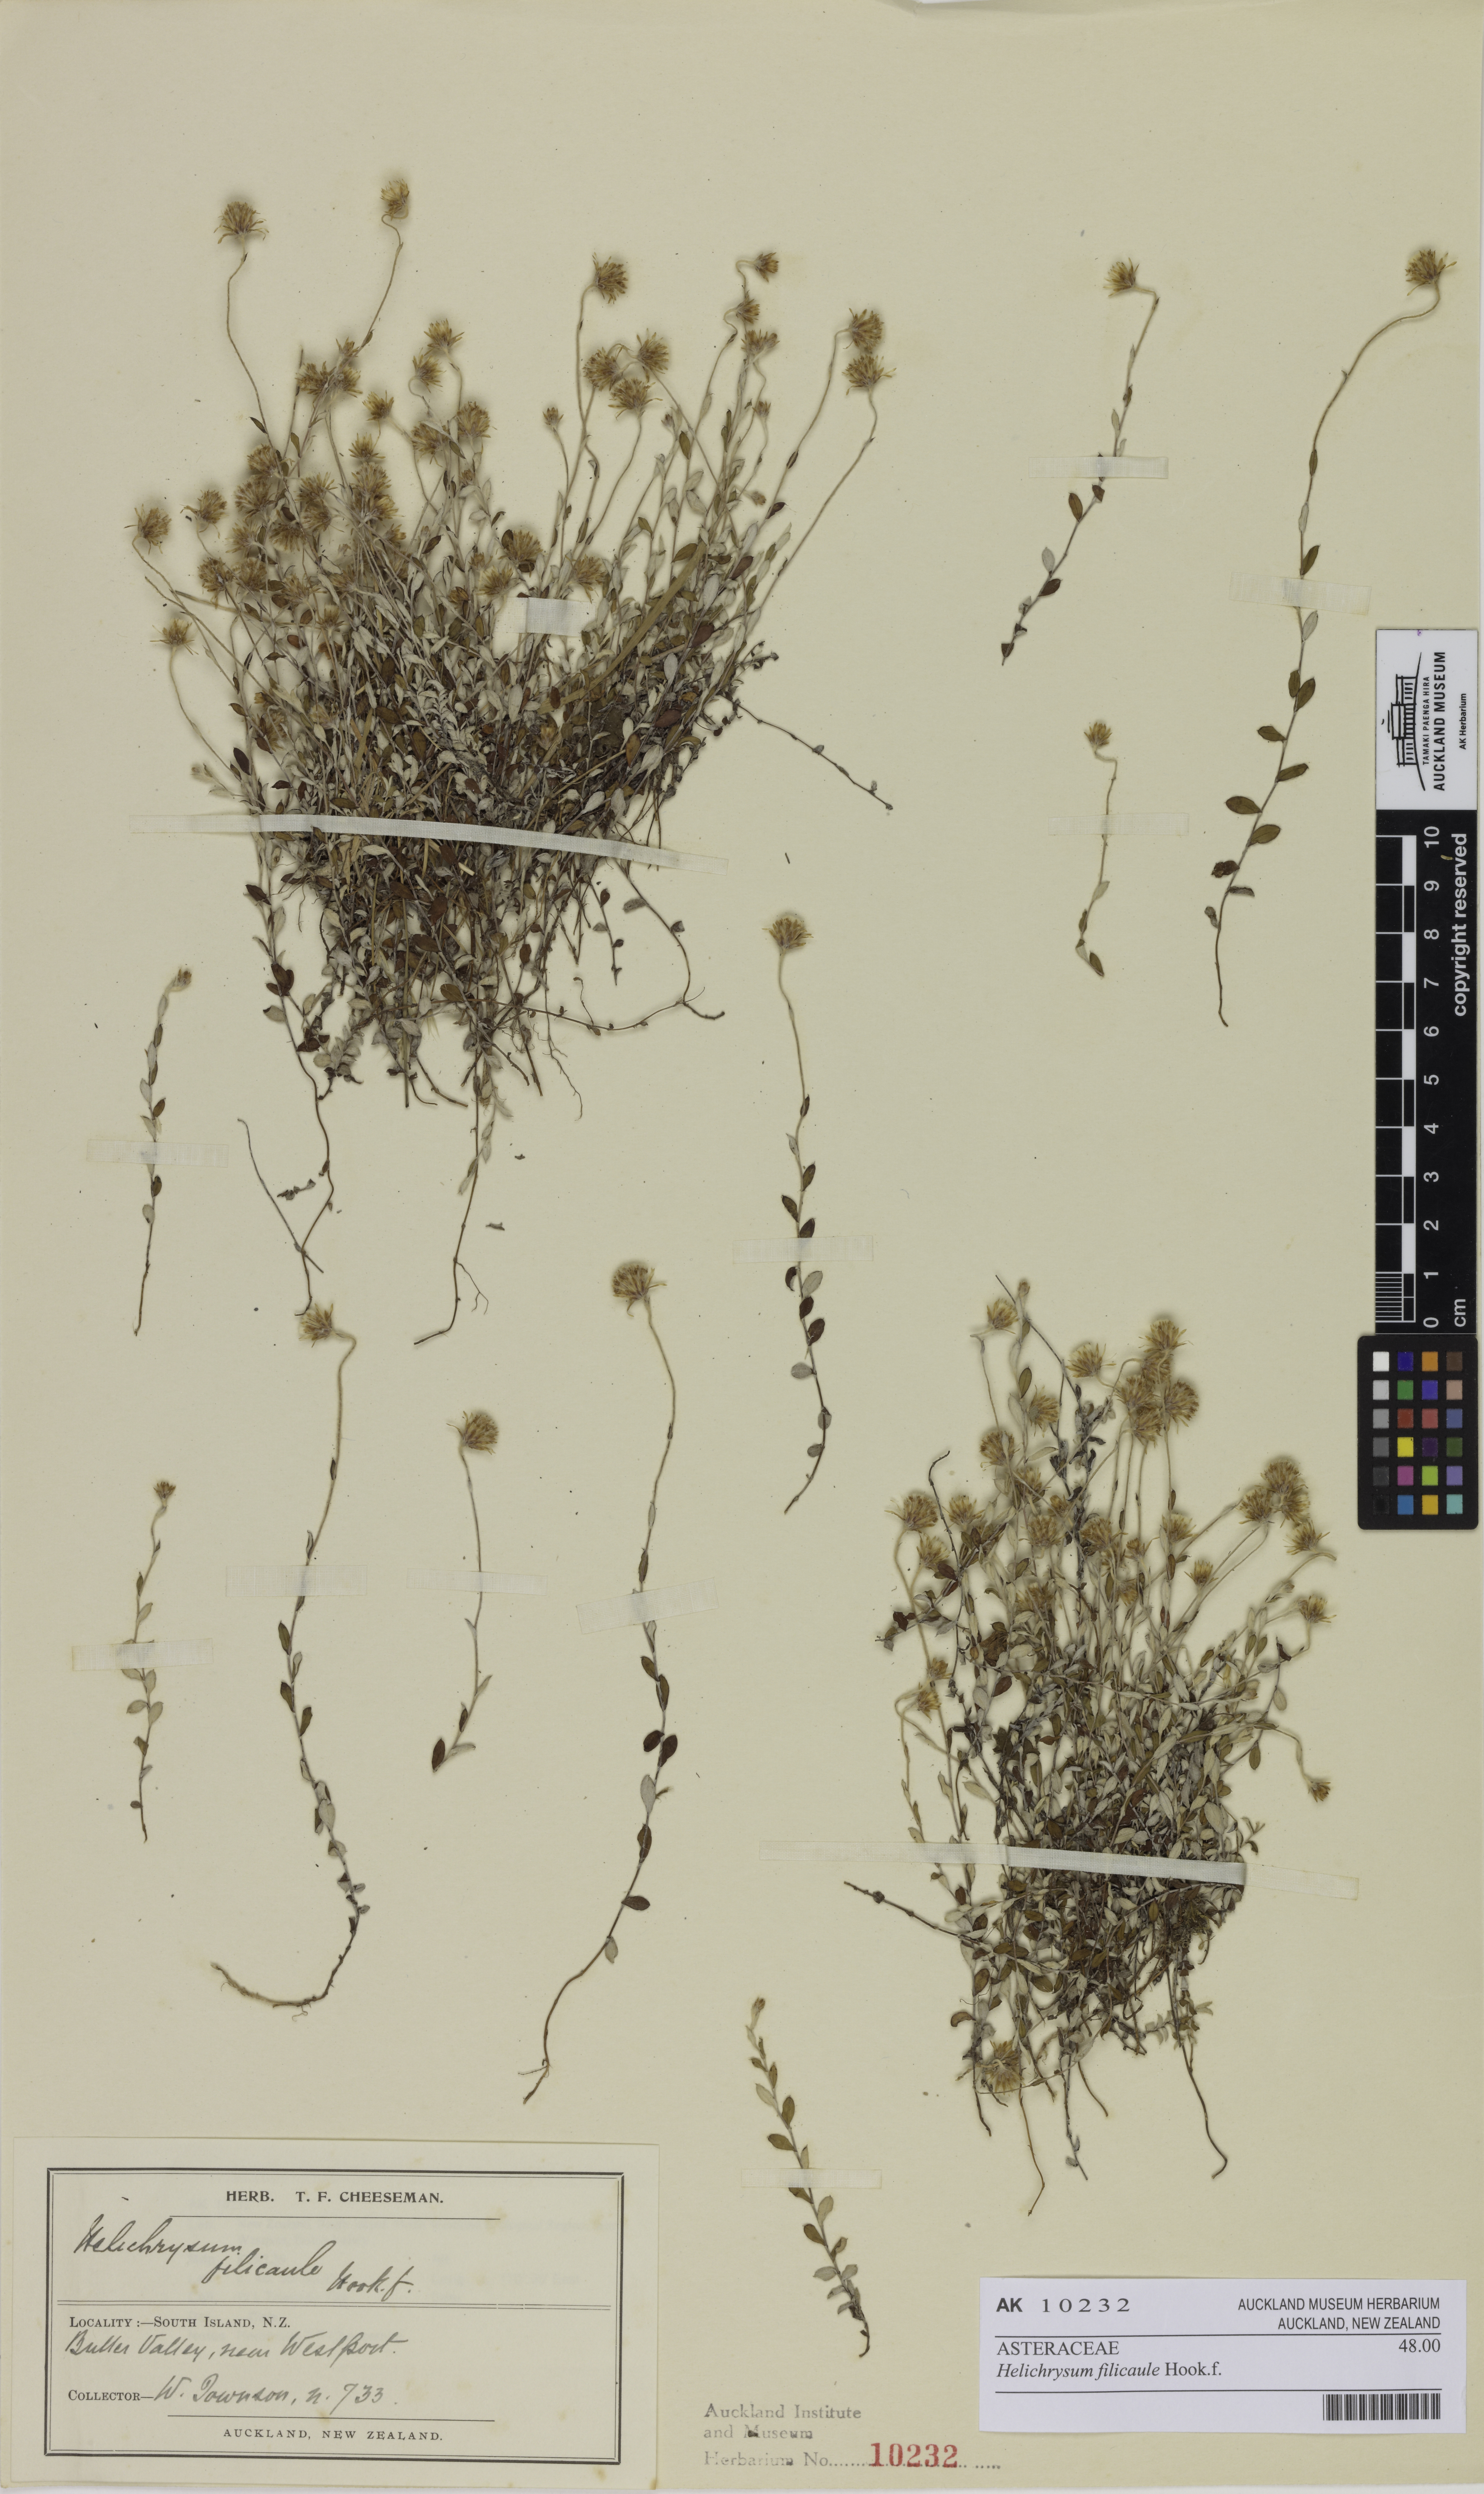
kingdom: Plantae
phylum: Tracheophyta
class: Magnoliopsida
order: Asterales
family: Asteraceae
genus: Helichrysum
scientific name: Helichrysum filicaule
